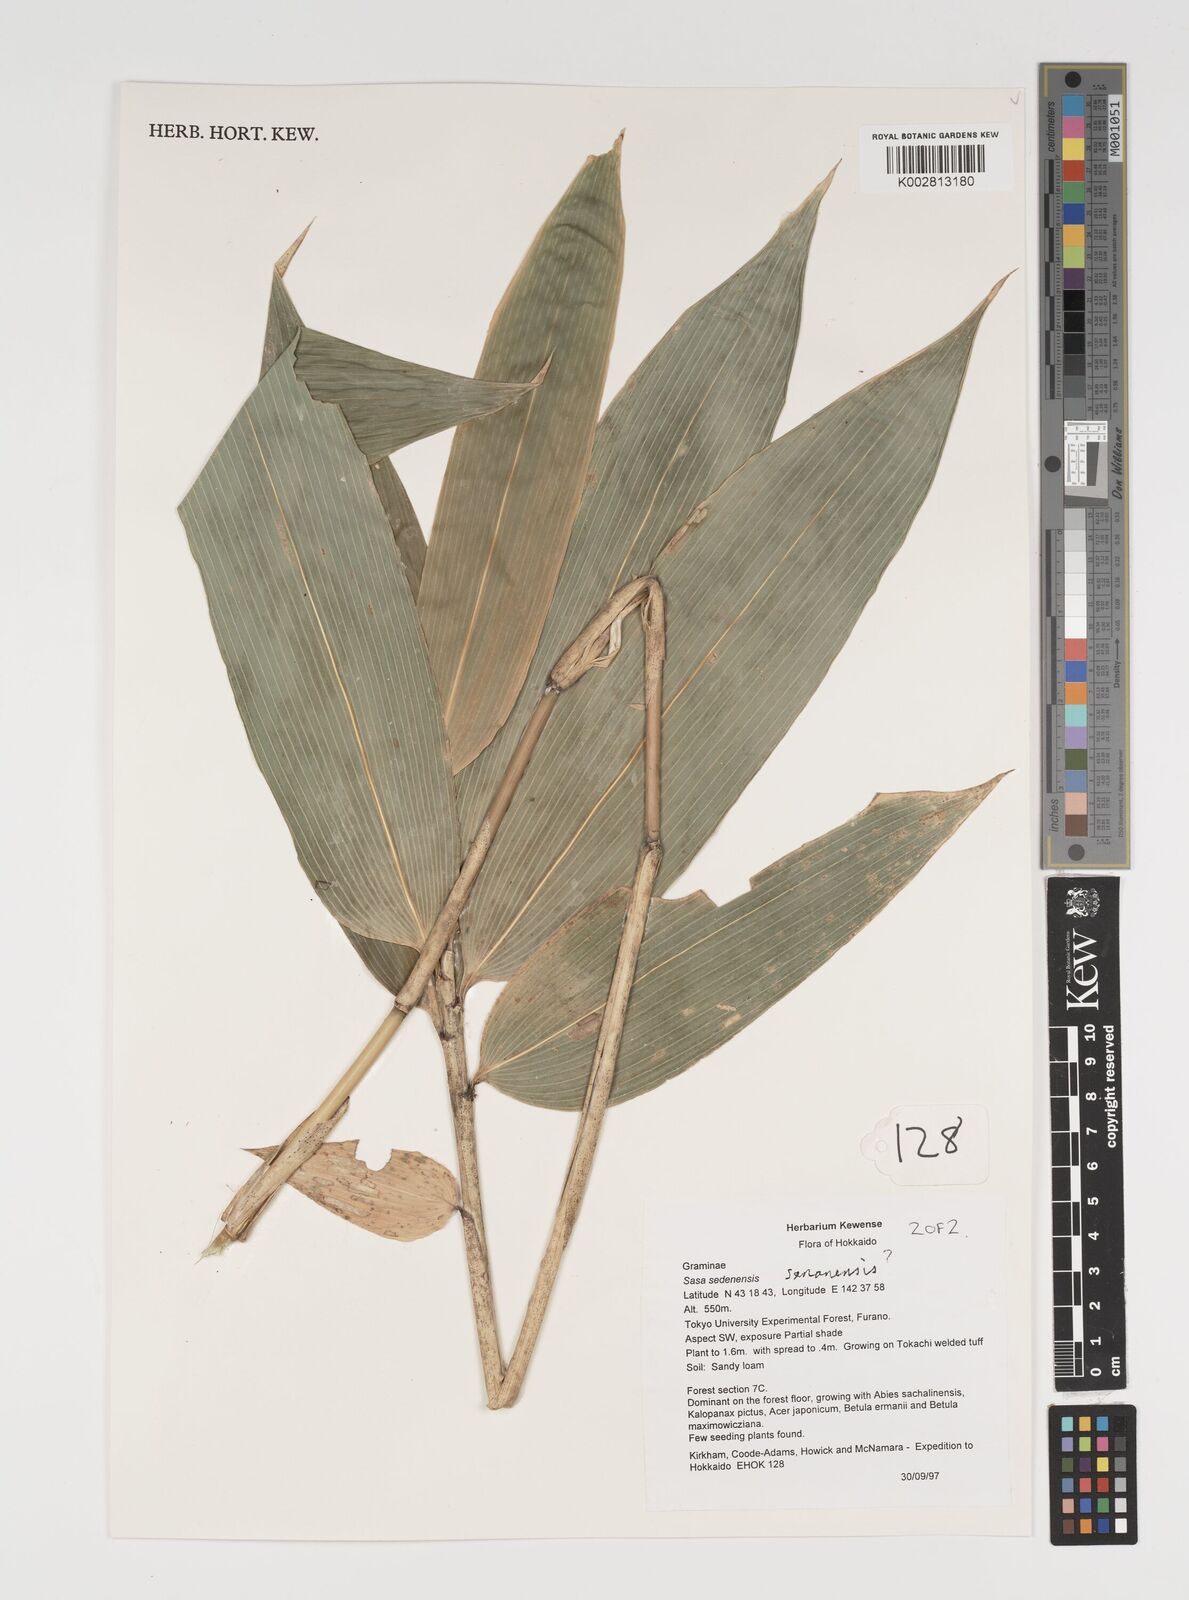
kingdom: Plantae
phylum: Tracheophyta
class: Liliopsida
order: Poales
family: Poaceae
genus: Sasa
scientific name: Sasa senanensis
